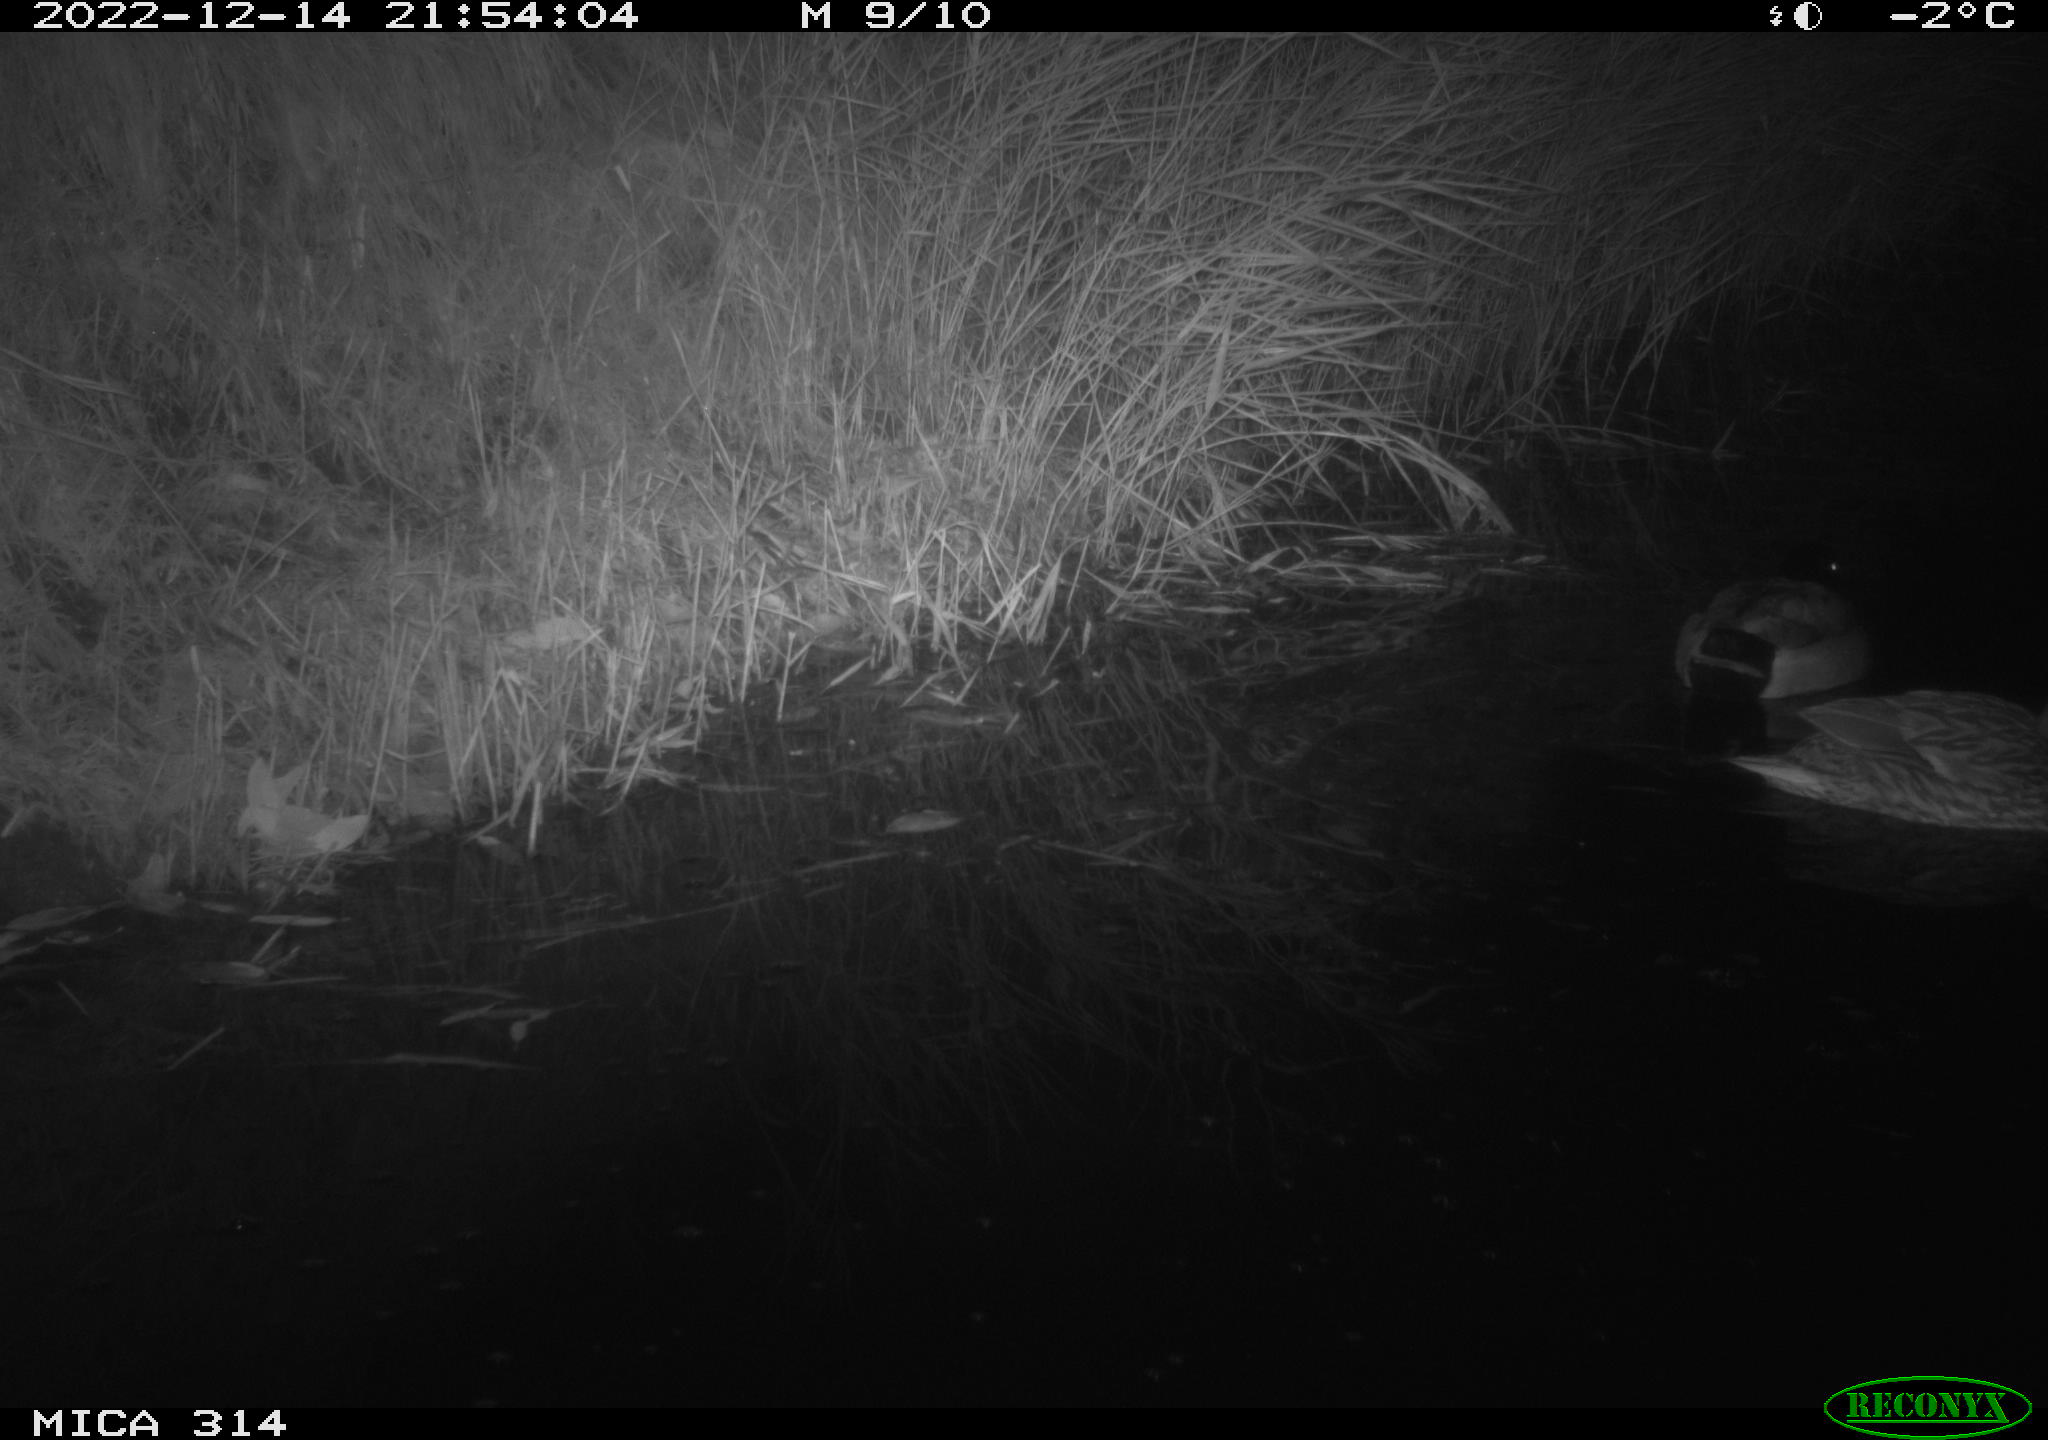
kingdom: Animalia
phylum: Chordata
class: Aves
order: Anseriformes
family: Anatidae
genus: Anas
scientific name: Anas
